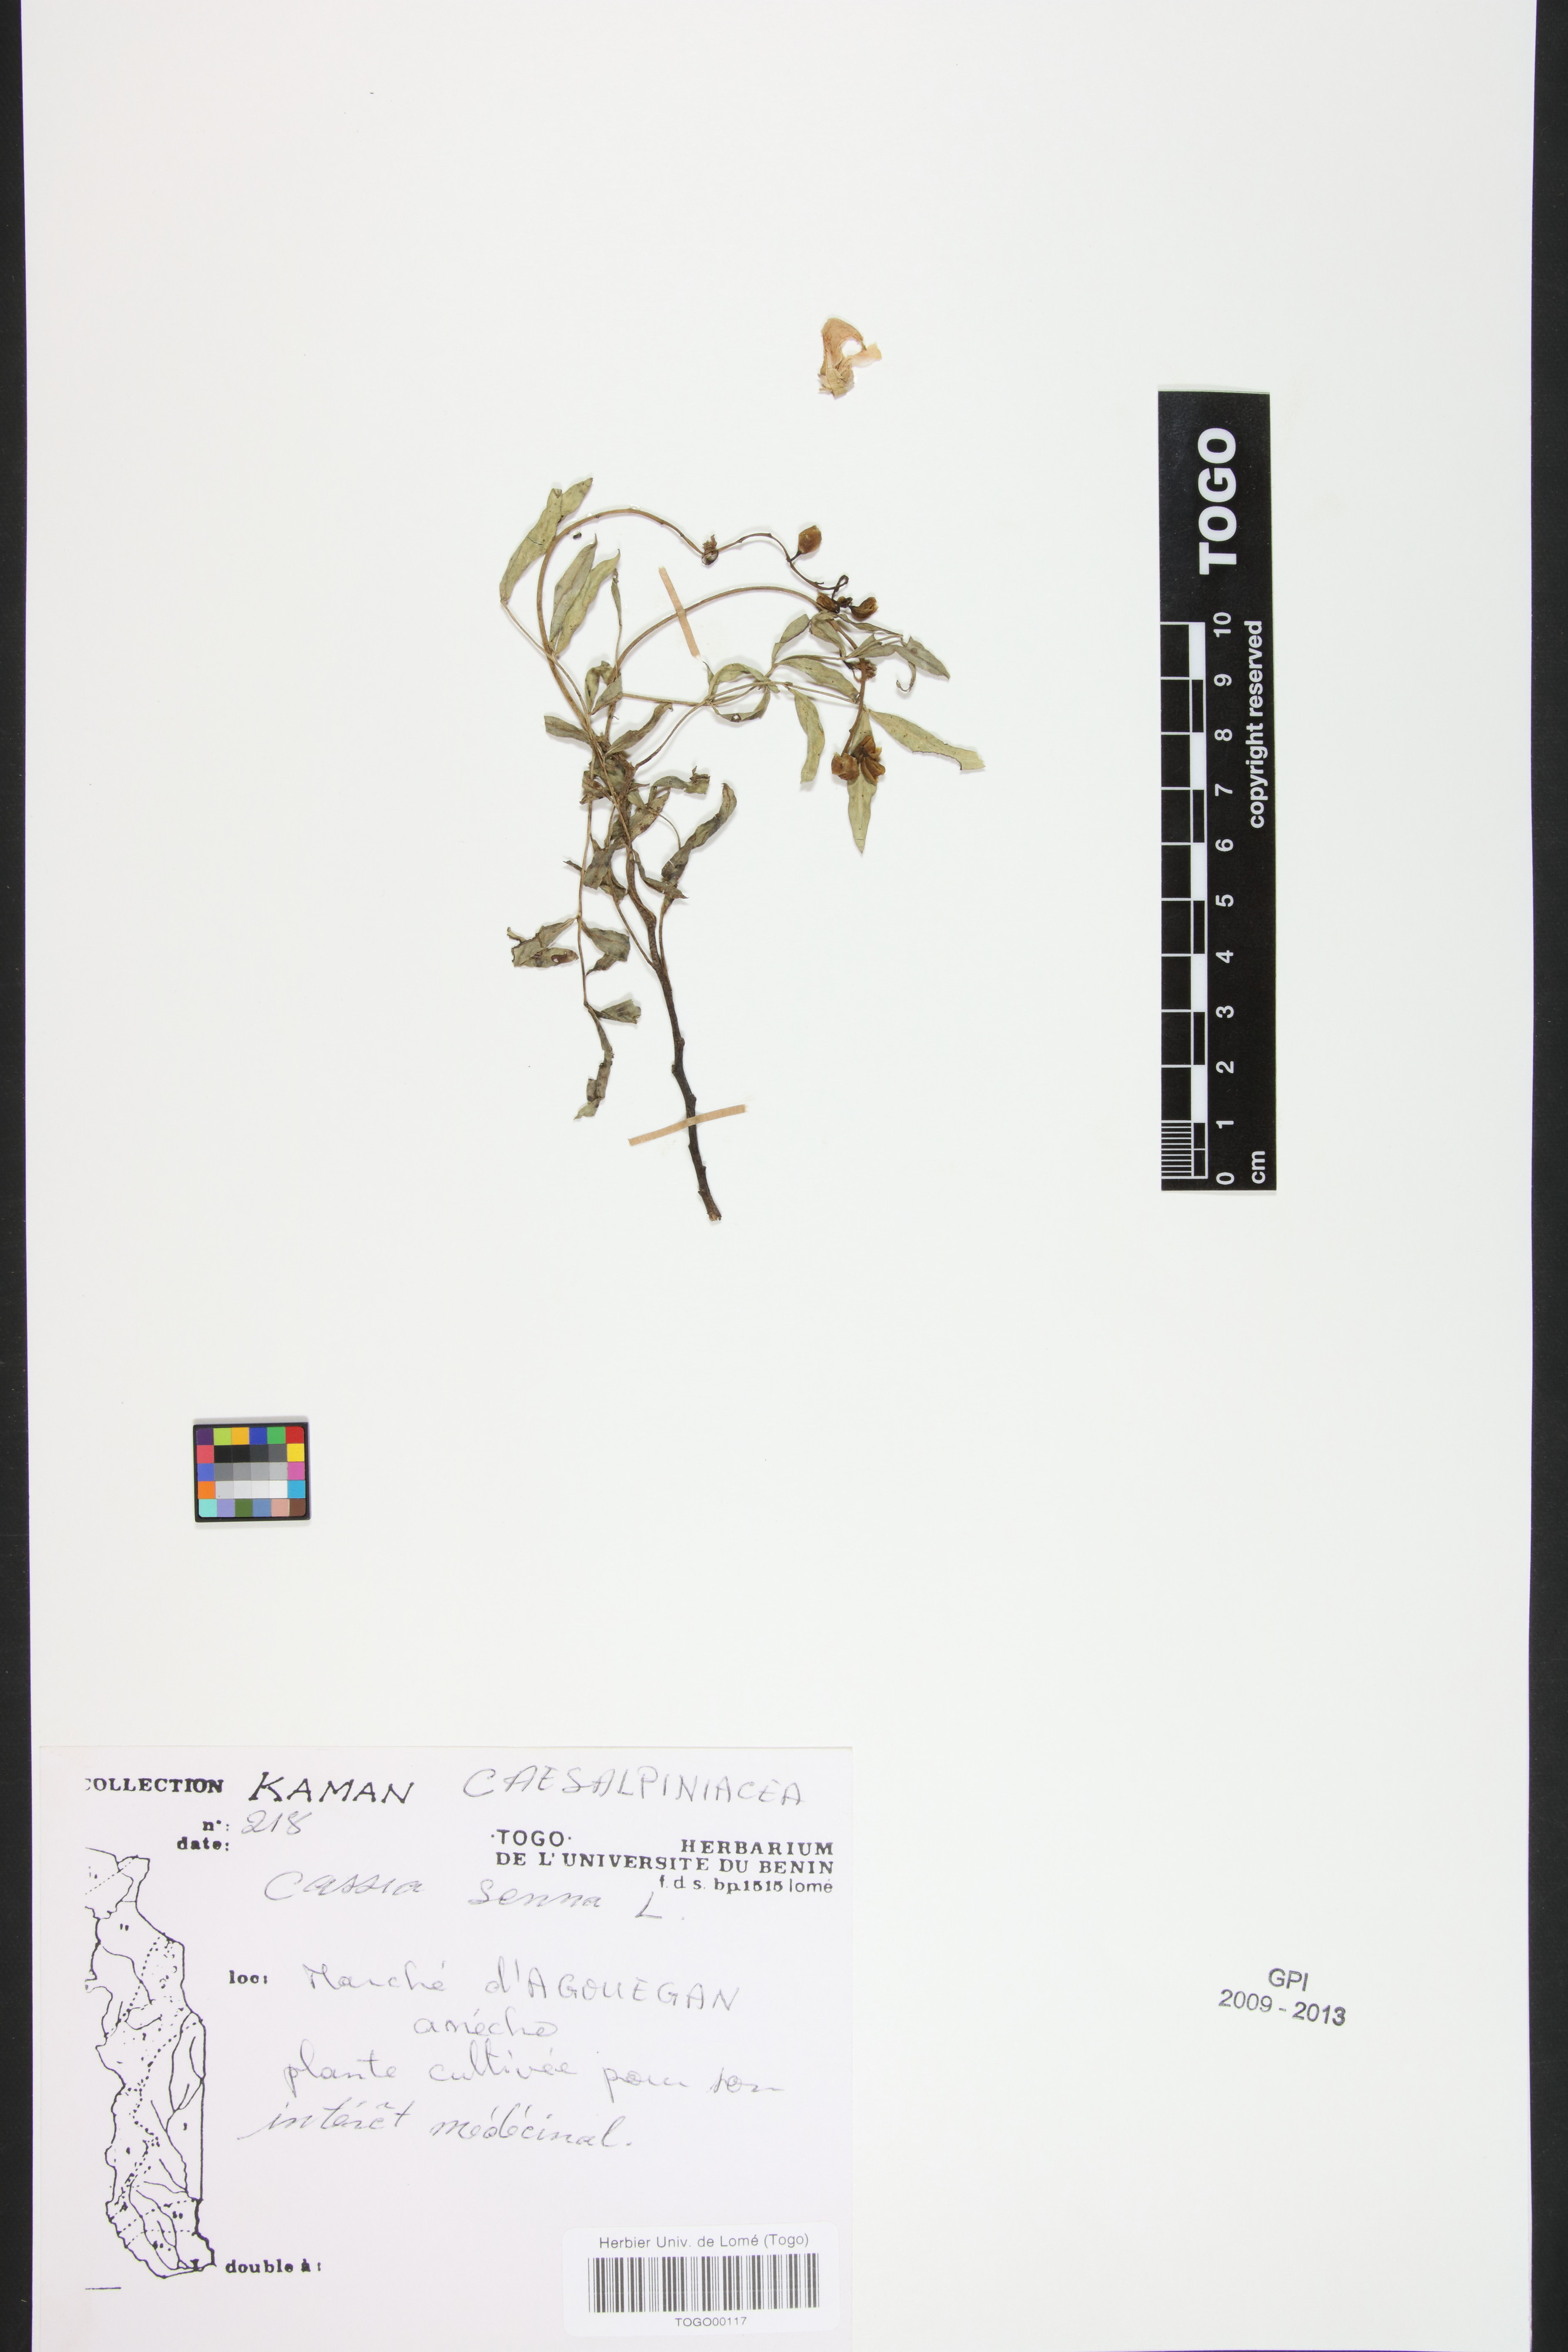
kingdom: Plantae
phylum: Tracheophyta
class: Magnoliopsida
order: Fabales
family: Fabaceae
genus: Senna
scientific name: Senna alexandrina
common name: True senna
